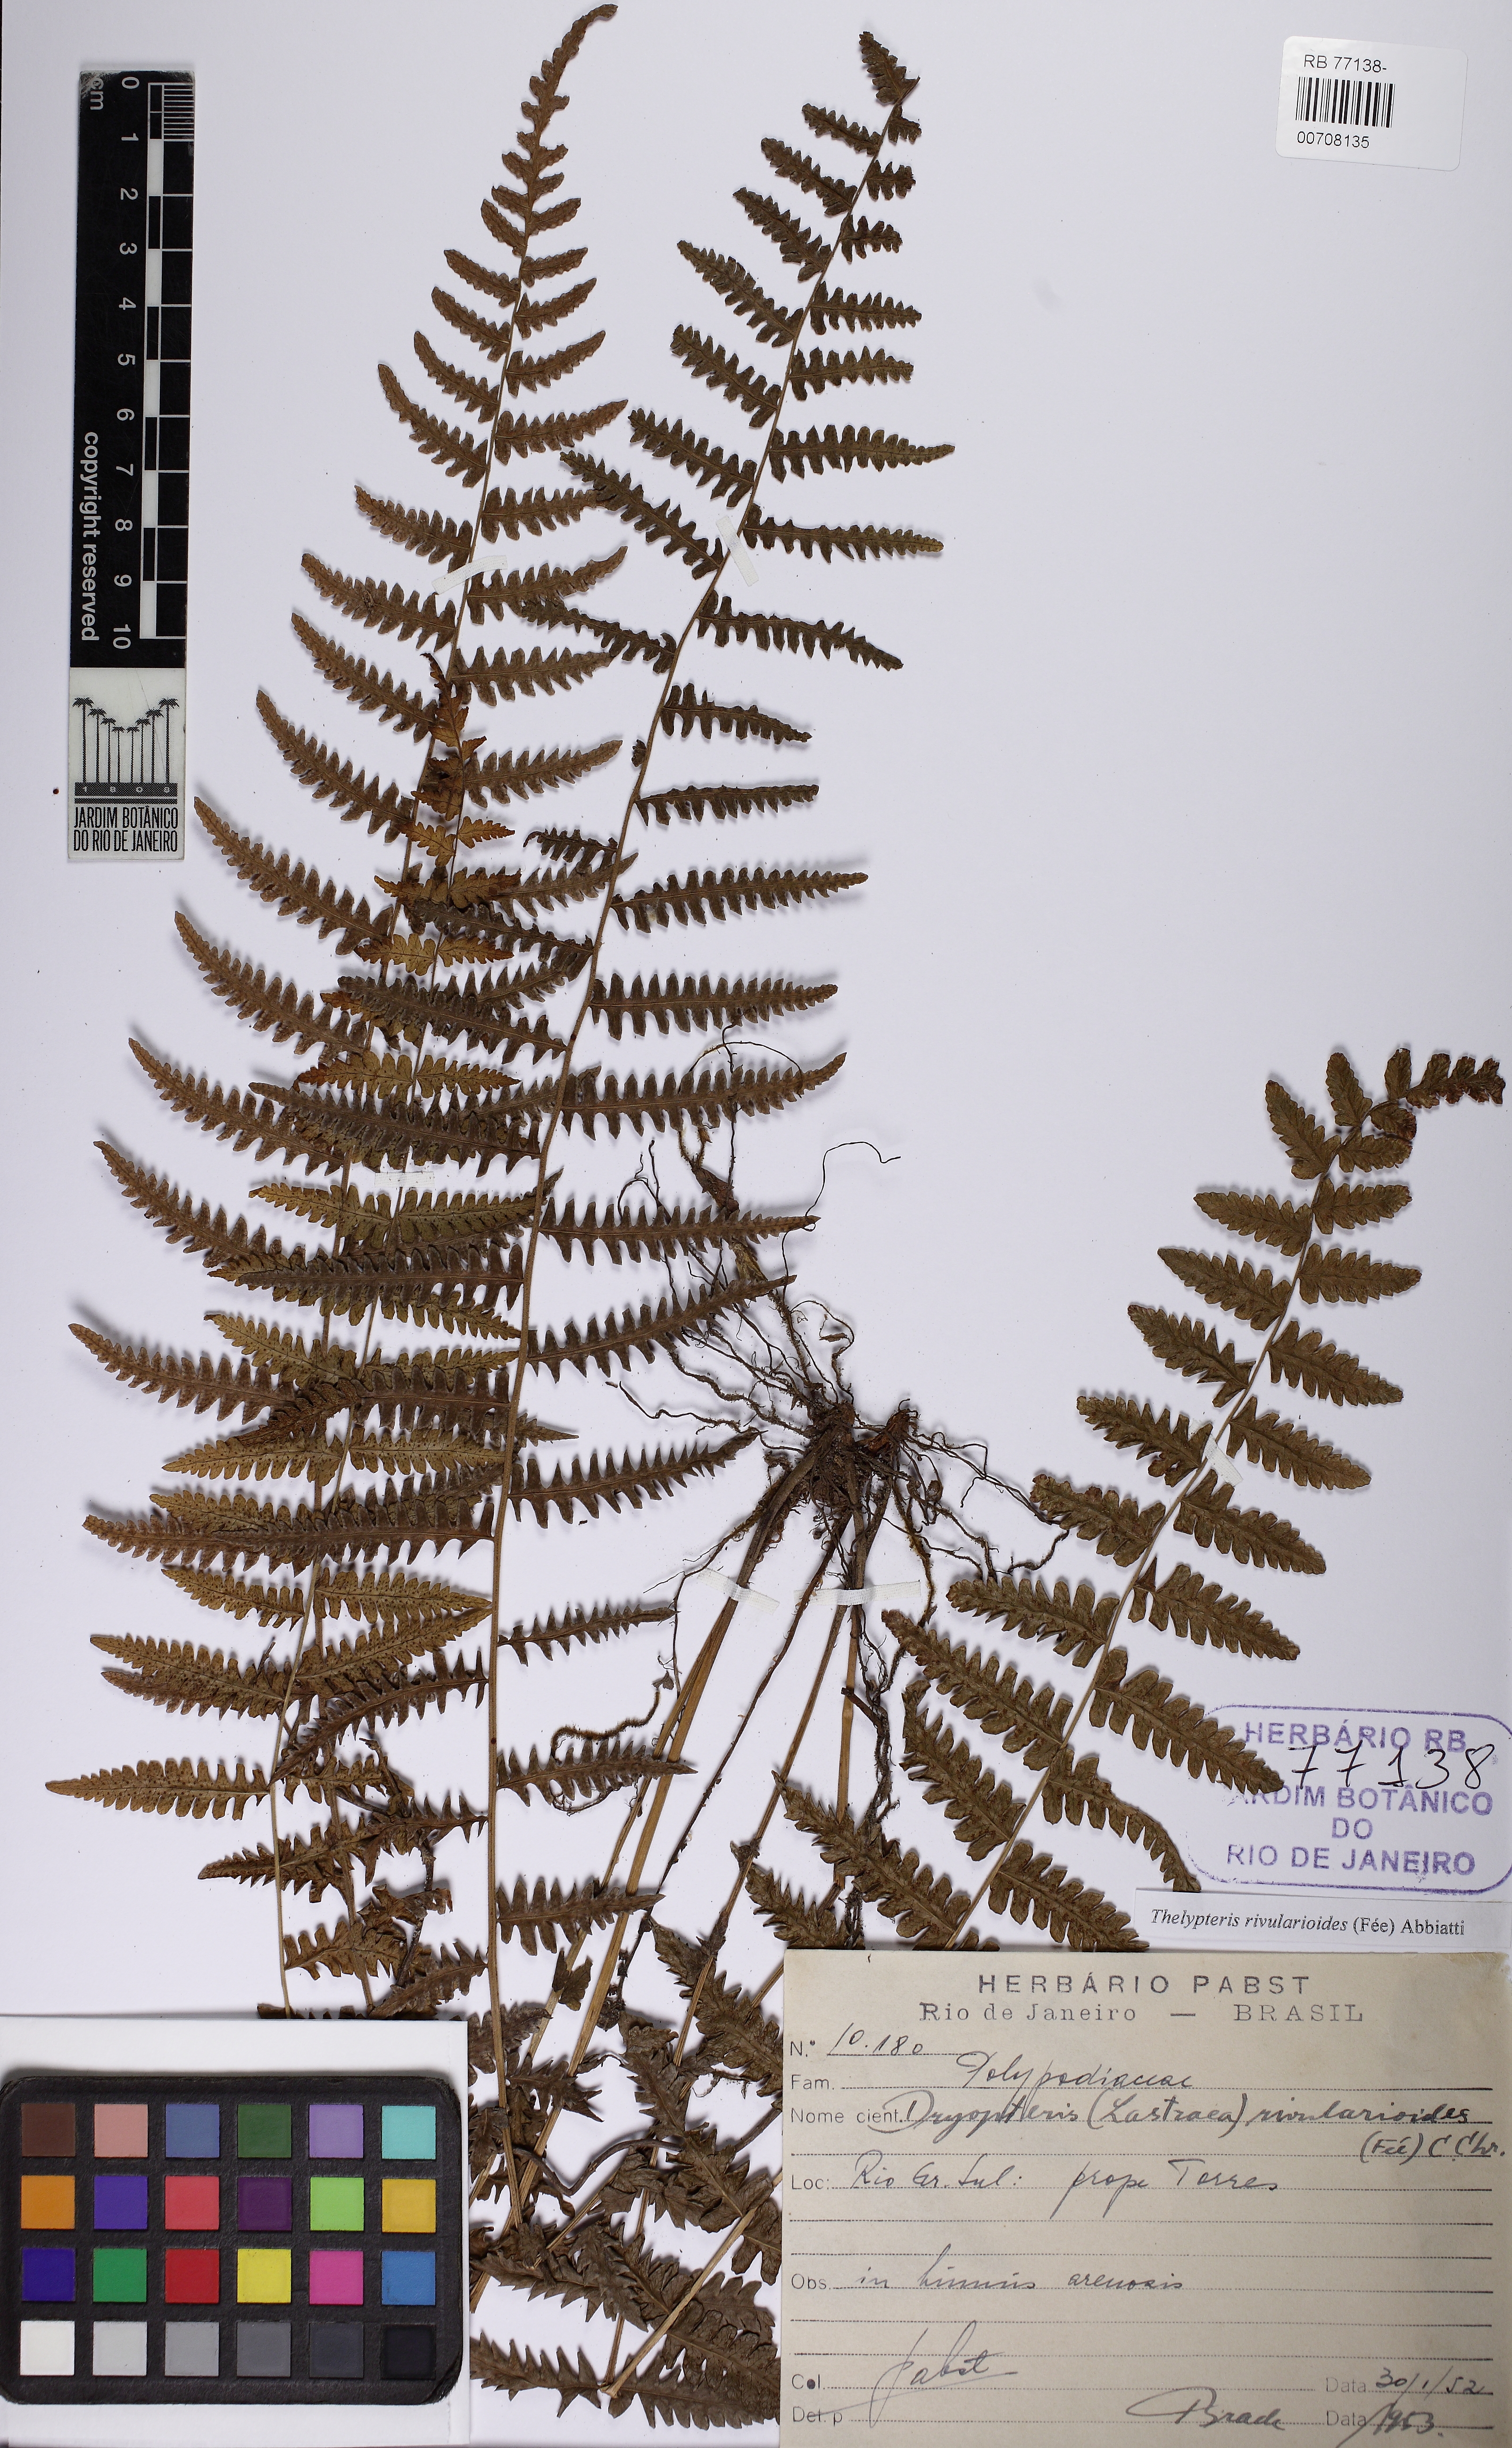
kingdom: Plantae
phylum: Tracheophyta
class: Polypodiopsida
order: Polypodiales
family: Thelypteridaceae
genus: Amauropelta
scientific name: Amauropelta rivularioides
